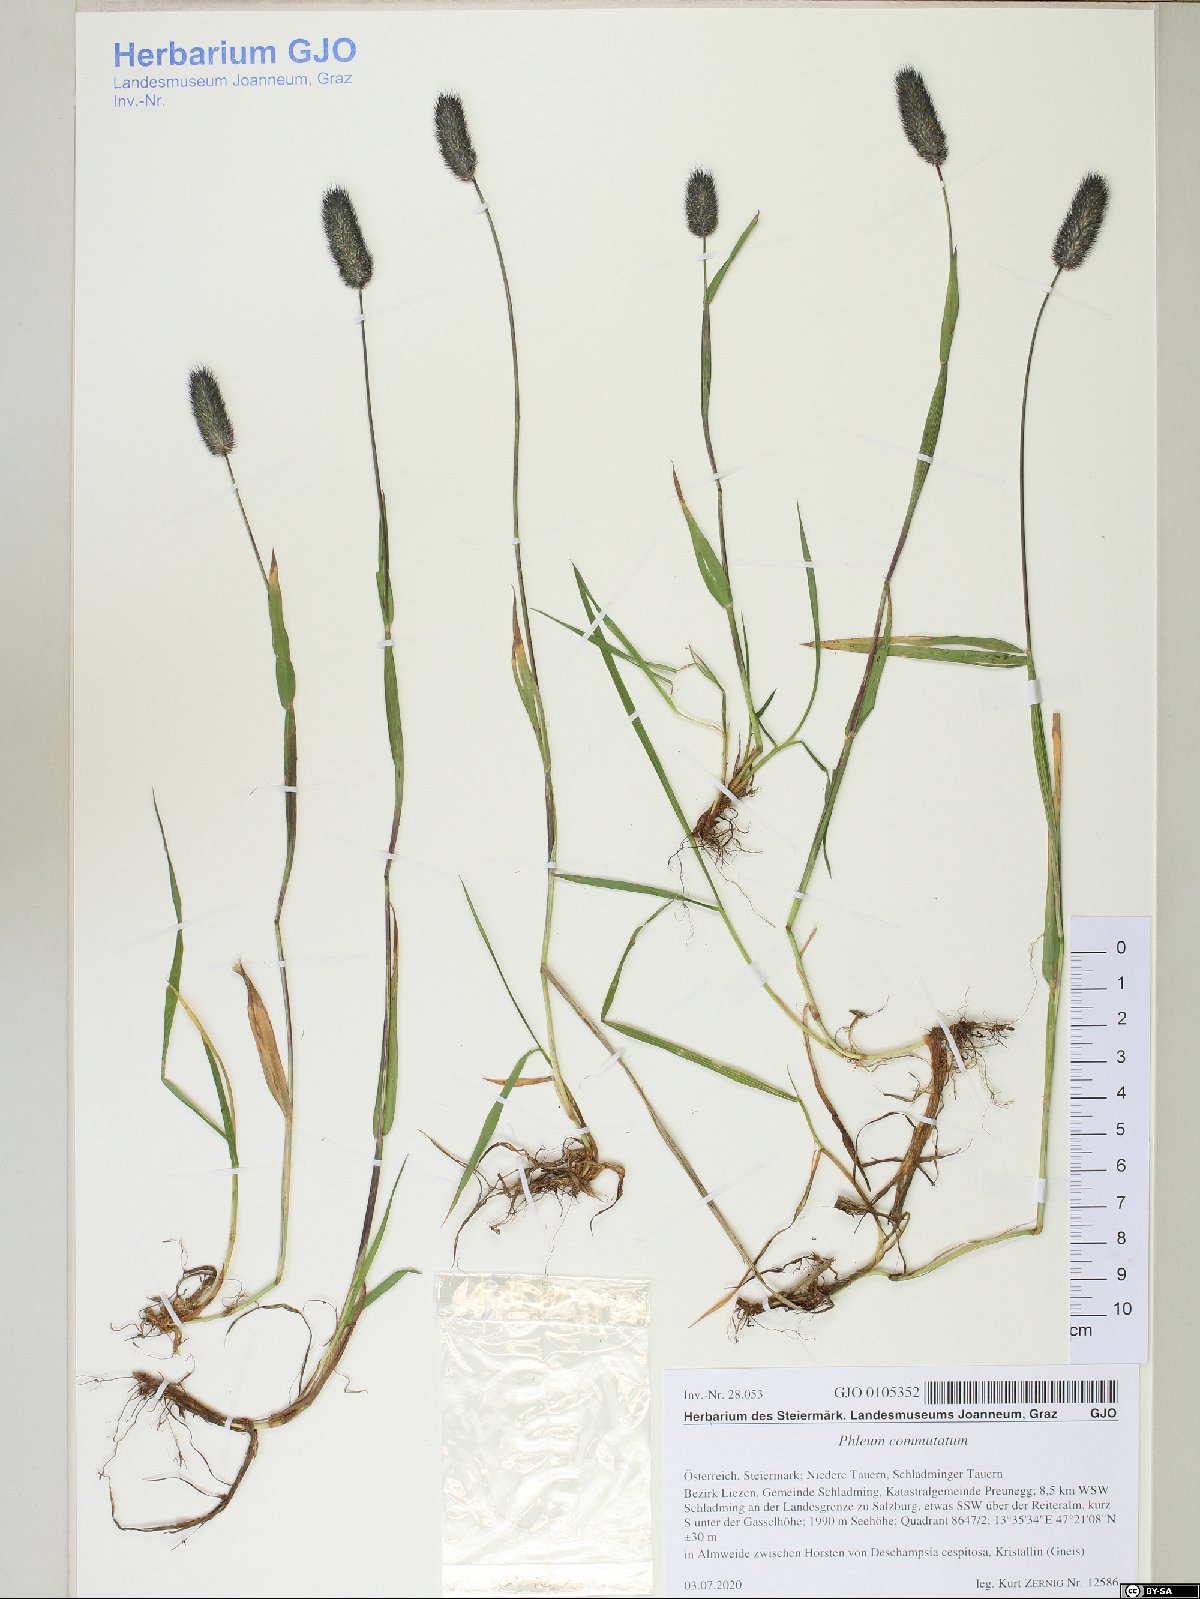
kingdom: Plantae
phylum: Tracheophyta
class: Liliopsida
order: Poales
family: Poaceae
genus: Phleum
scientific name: Phleum alpinum
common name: Alpine cat's-tail
